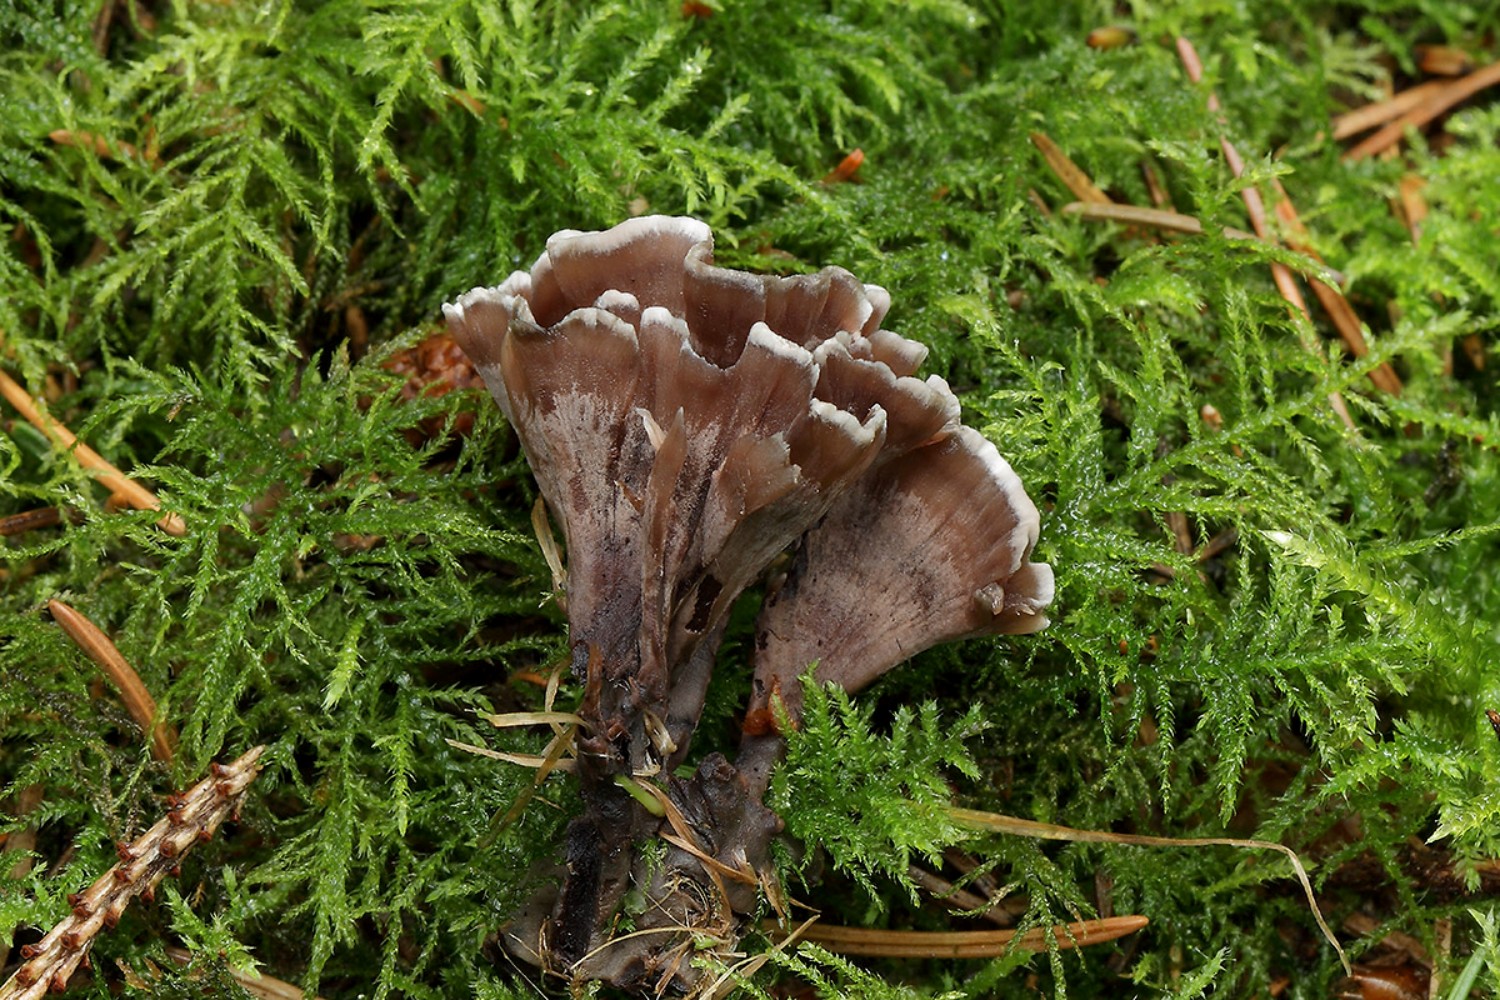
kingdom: Fungi
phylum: Basidiomycota
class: Agaricomycetes
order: Thelephorales
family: Thelephoraceae
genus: Thelephora
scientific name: Thelephora palmata
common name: grenet frynsesvamp
